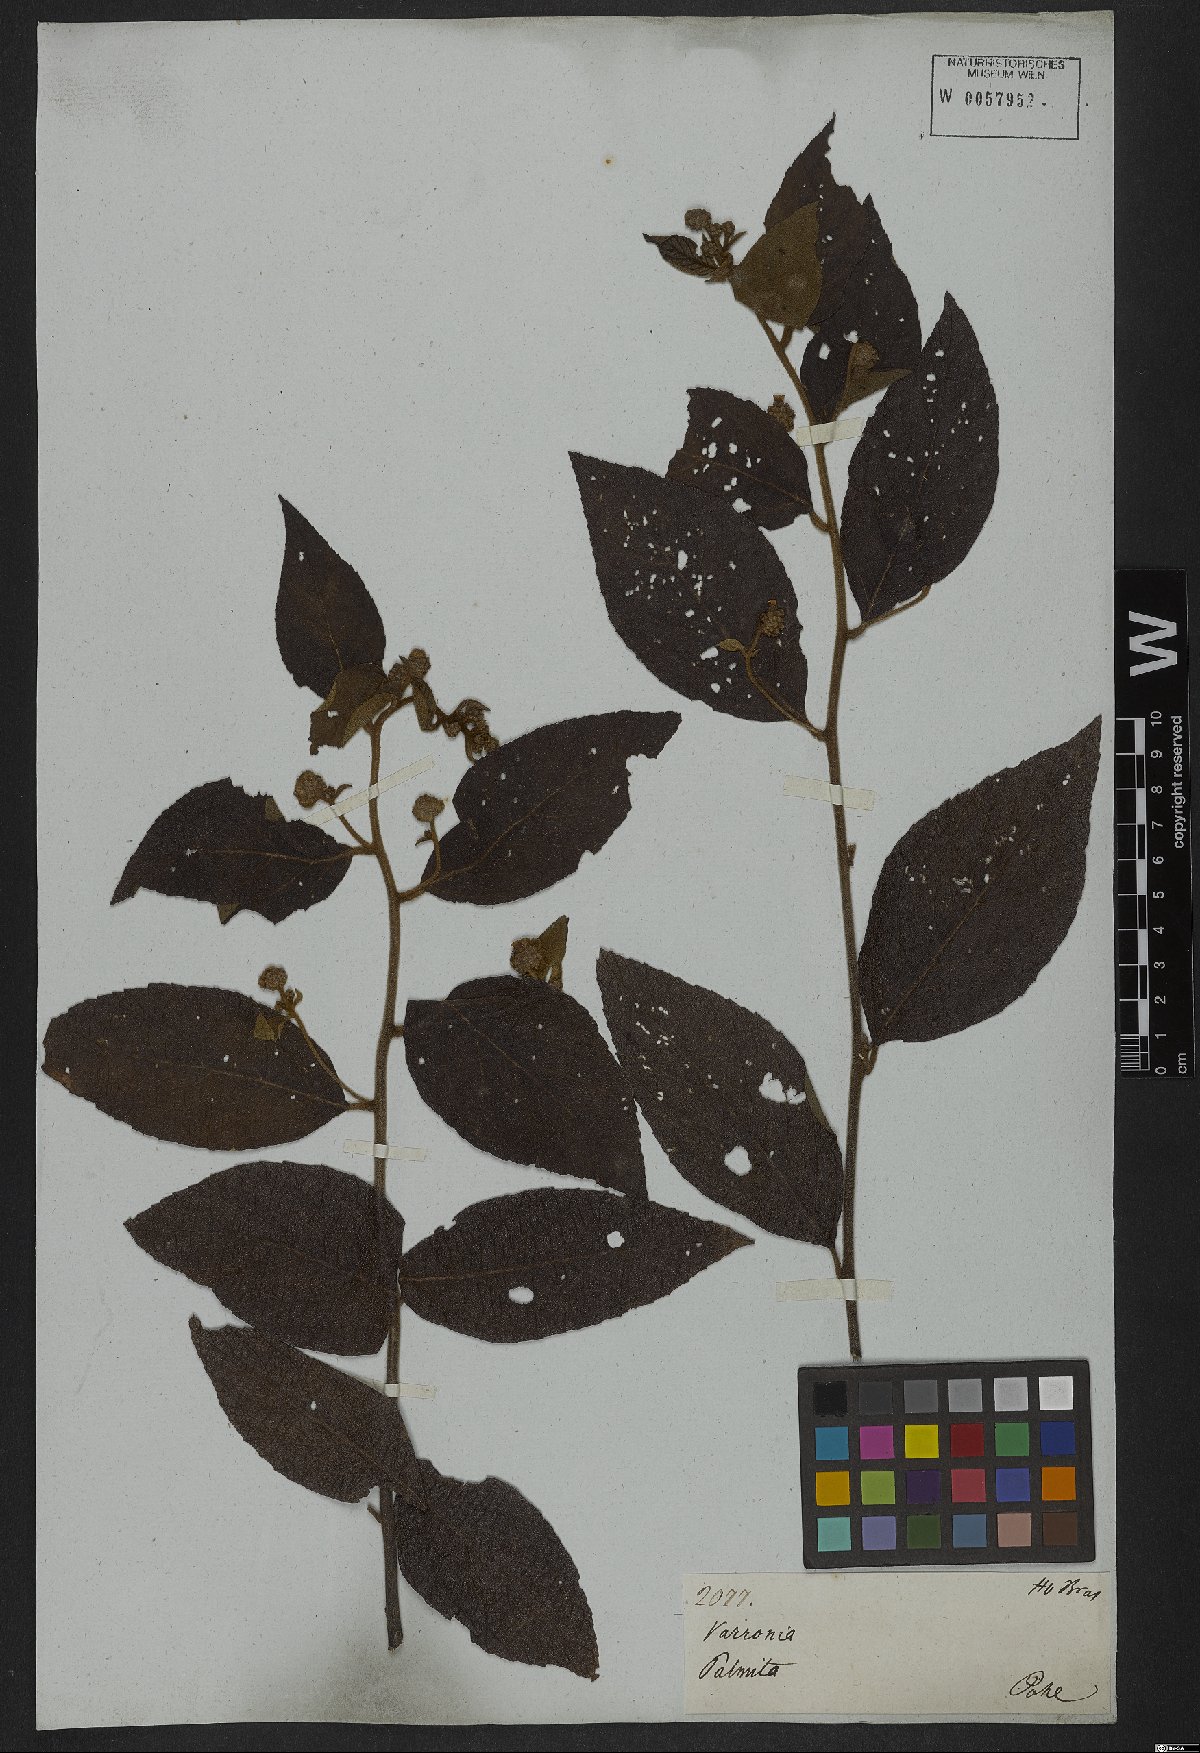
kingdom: Plantae
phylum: Tracheophyta
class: Magnoliopsida
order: Boraginales
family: Cordiaceae
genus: Varronia
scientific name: Varronia polycephala
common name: Black-sage
